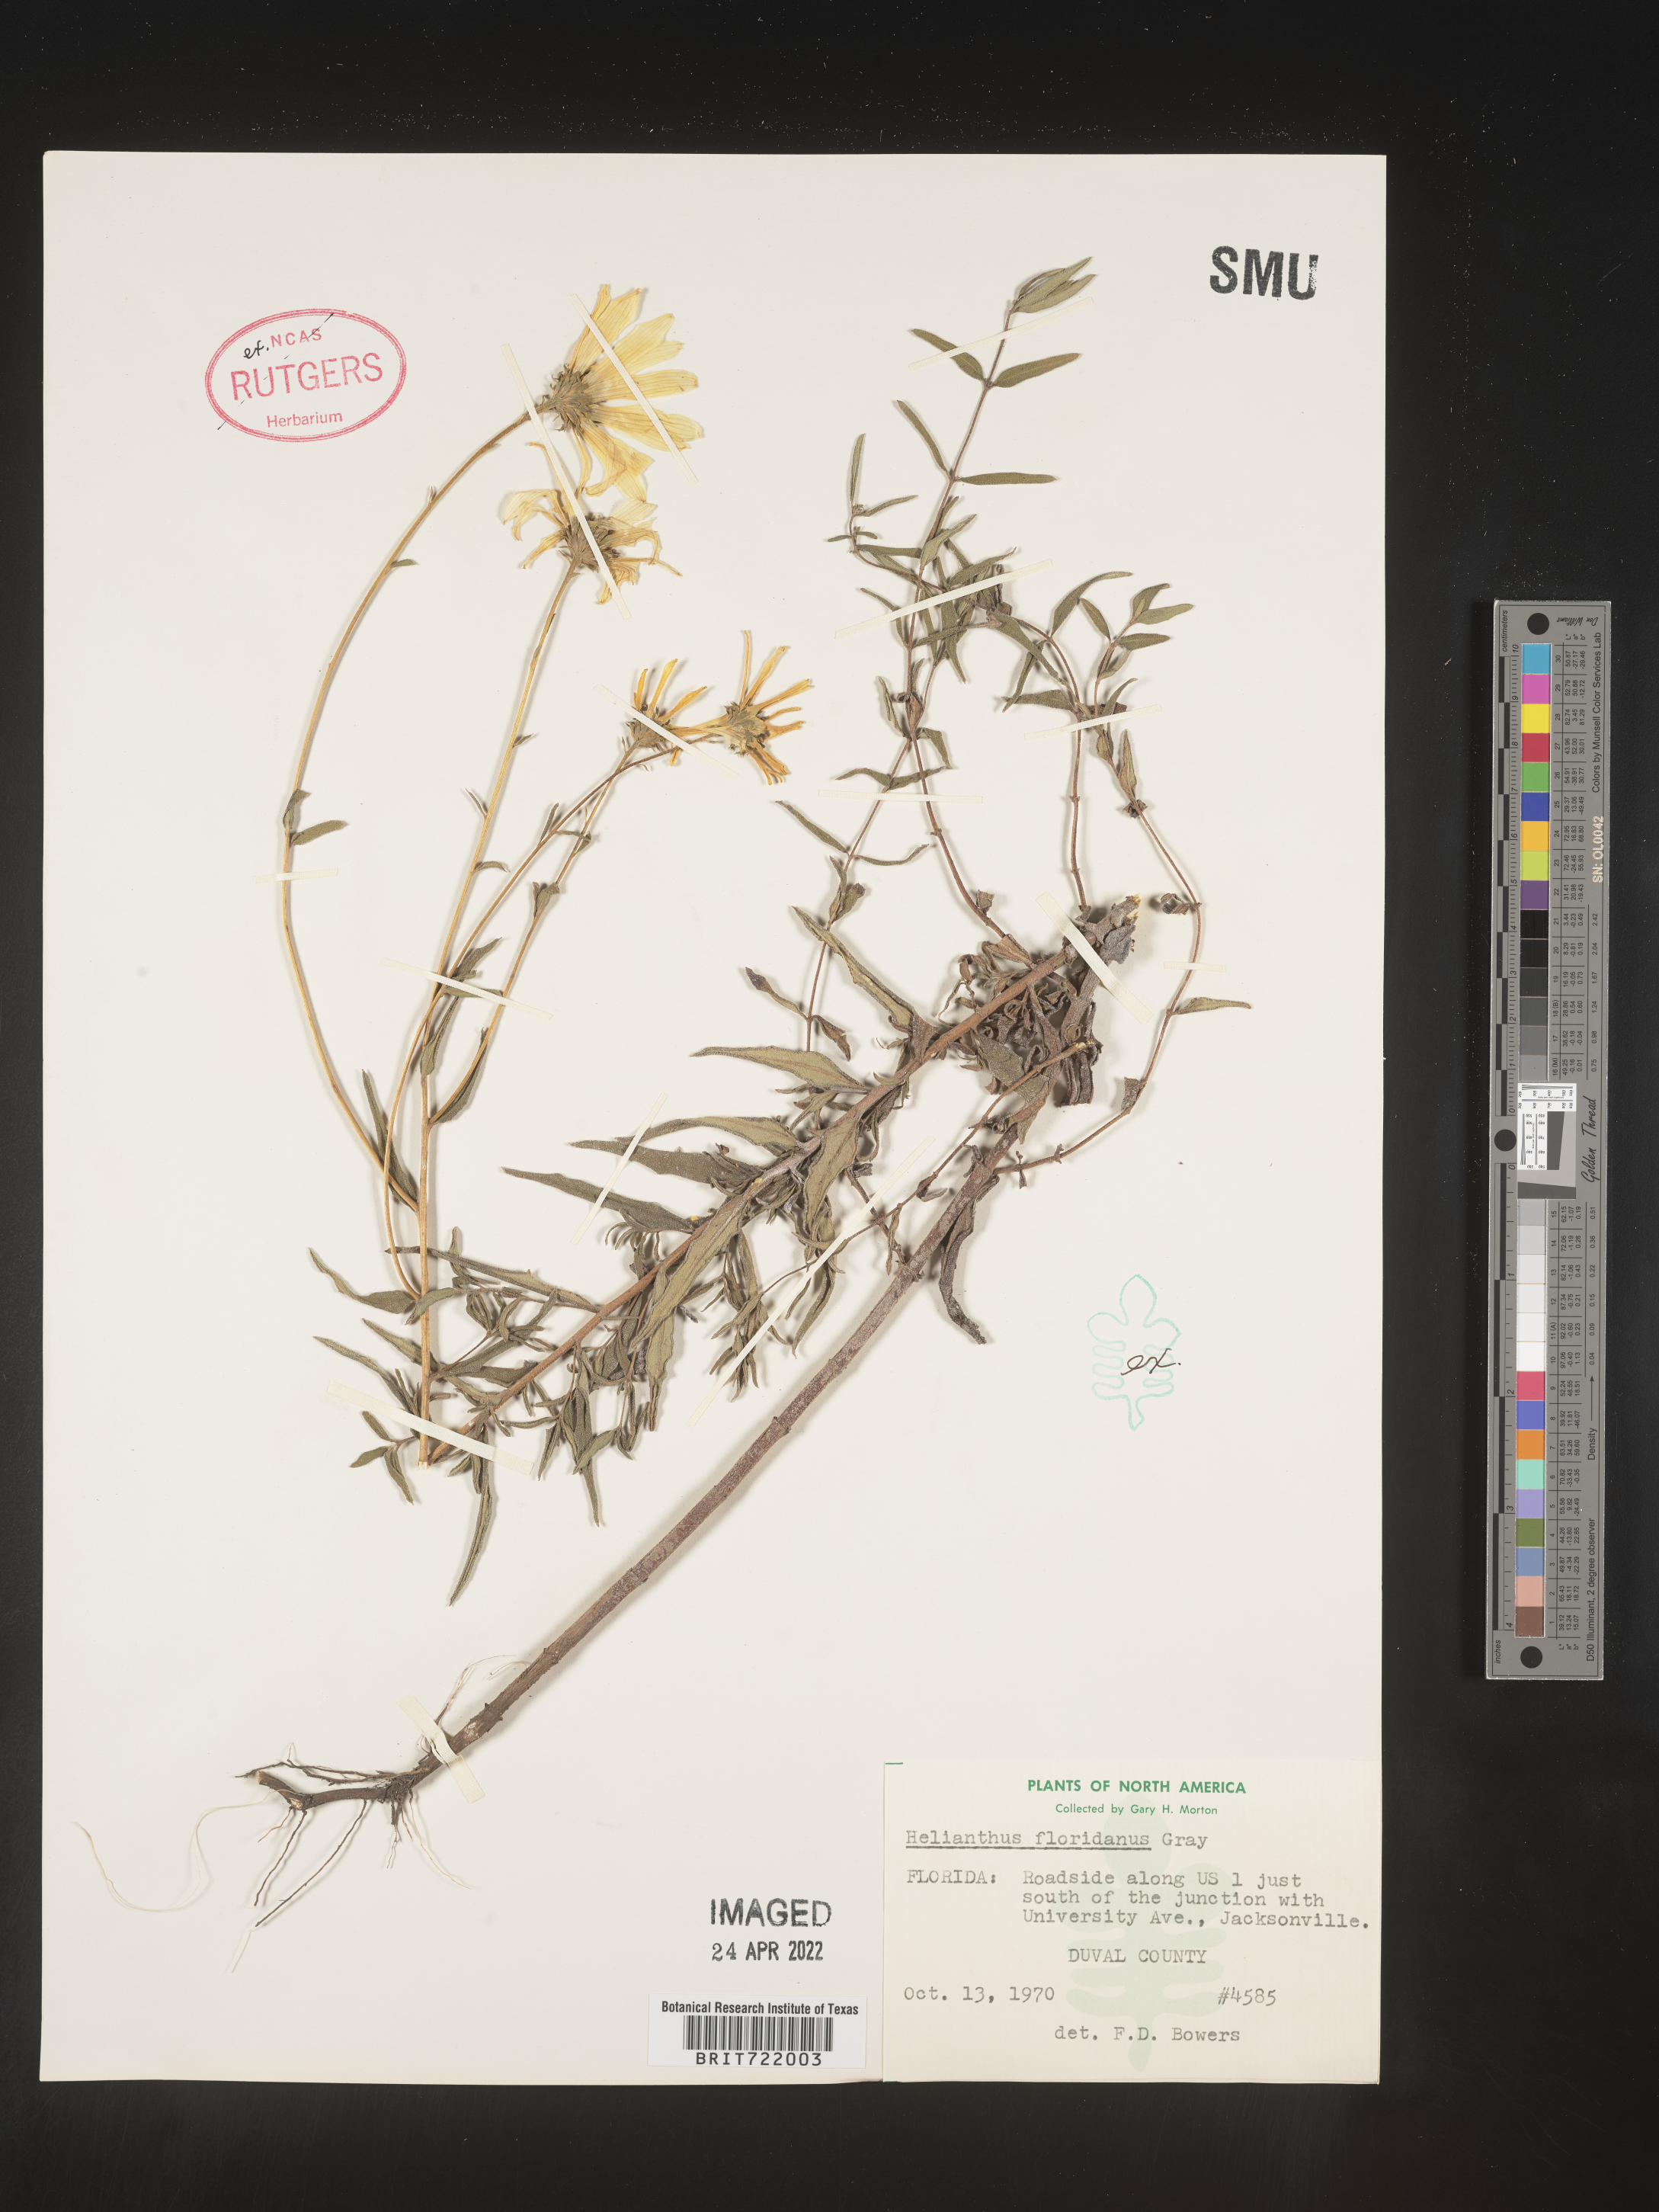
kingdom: Plantae
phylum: Tracheophyta
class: Magnoliopsida
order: Asterales
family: Asteraceae
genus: Helianthus
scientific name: Helianthus
